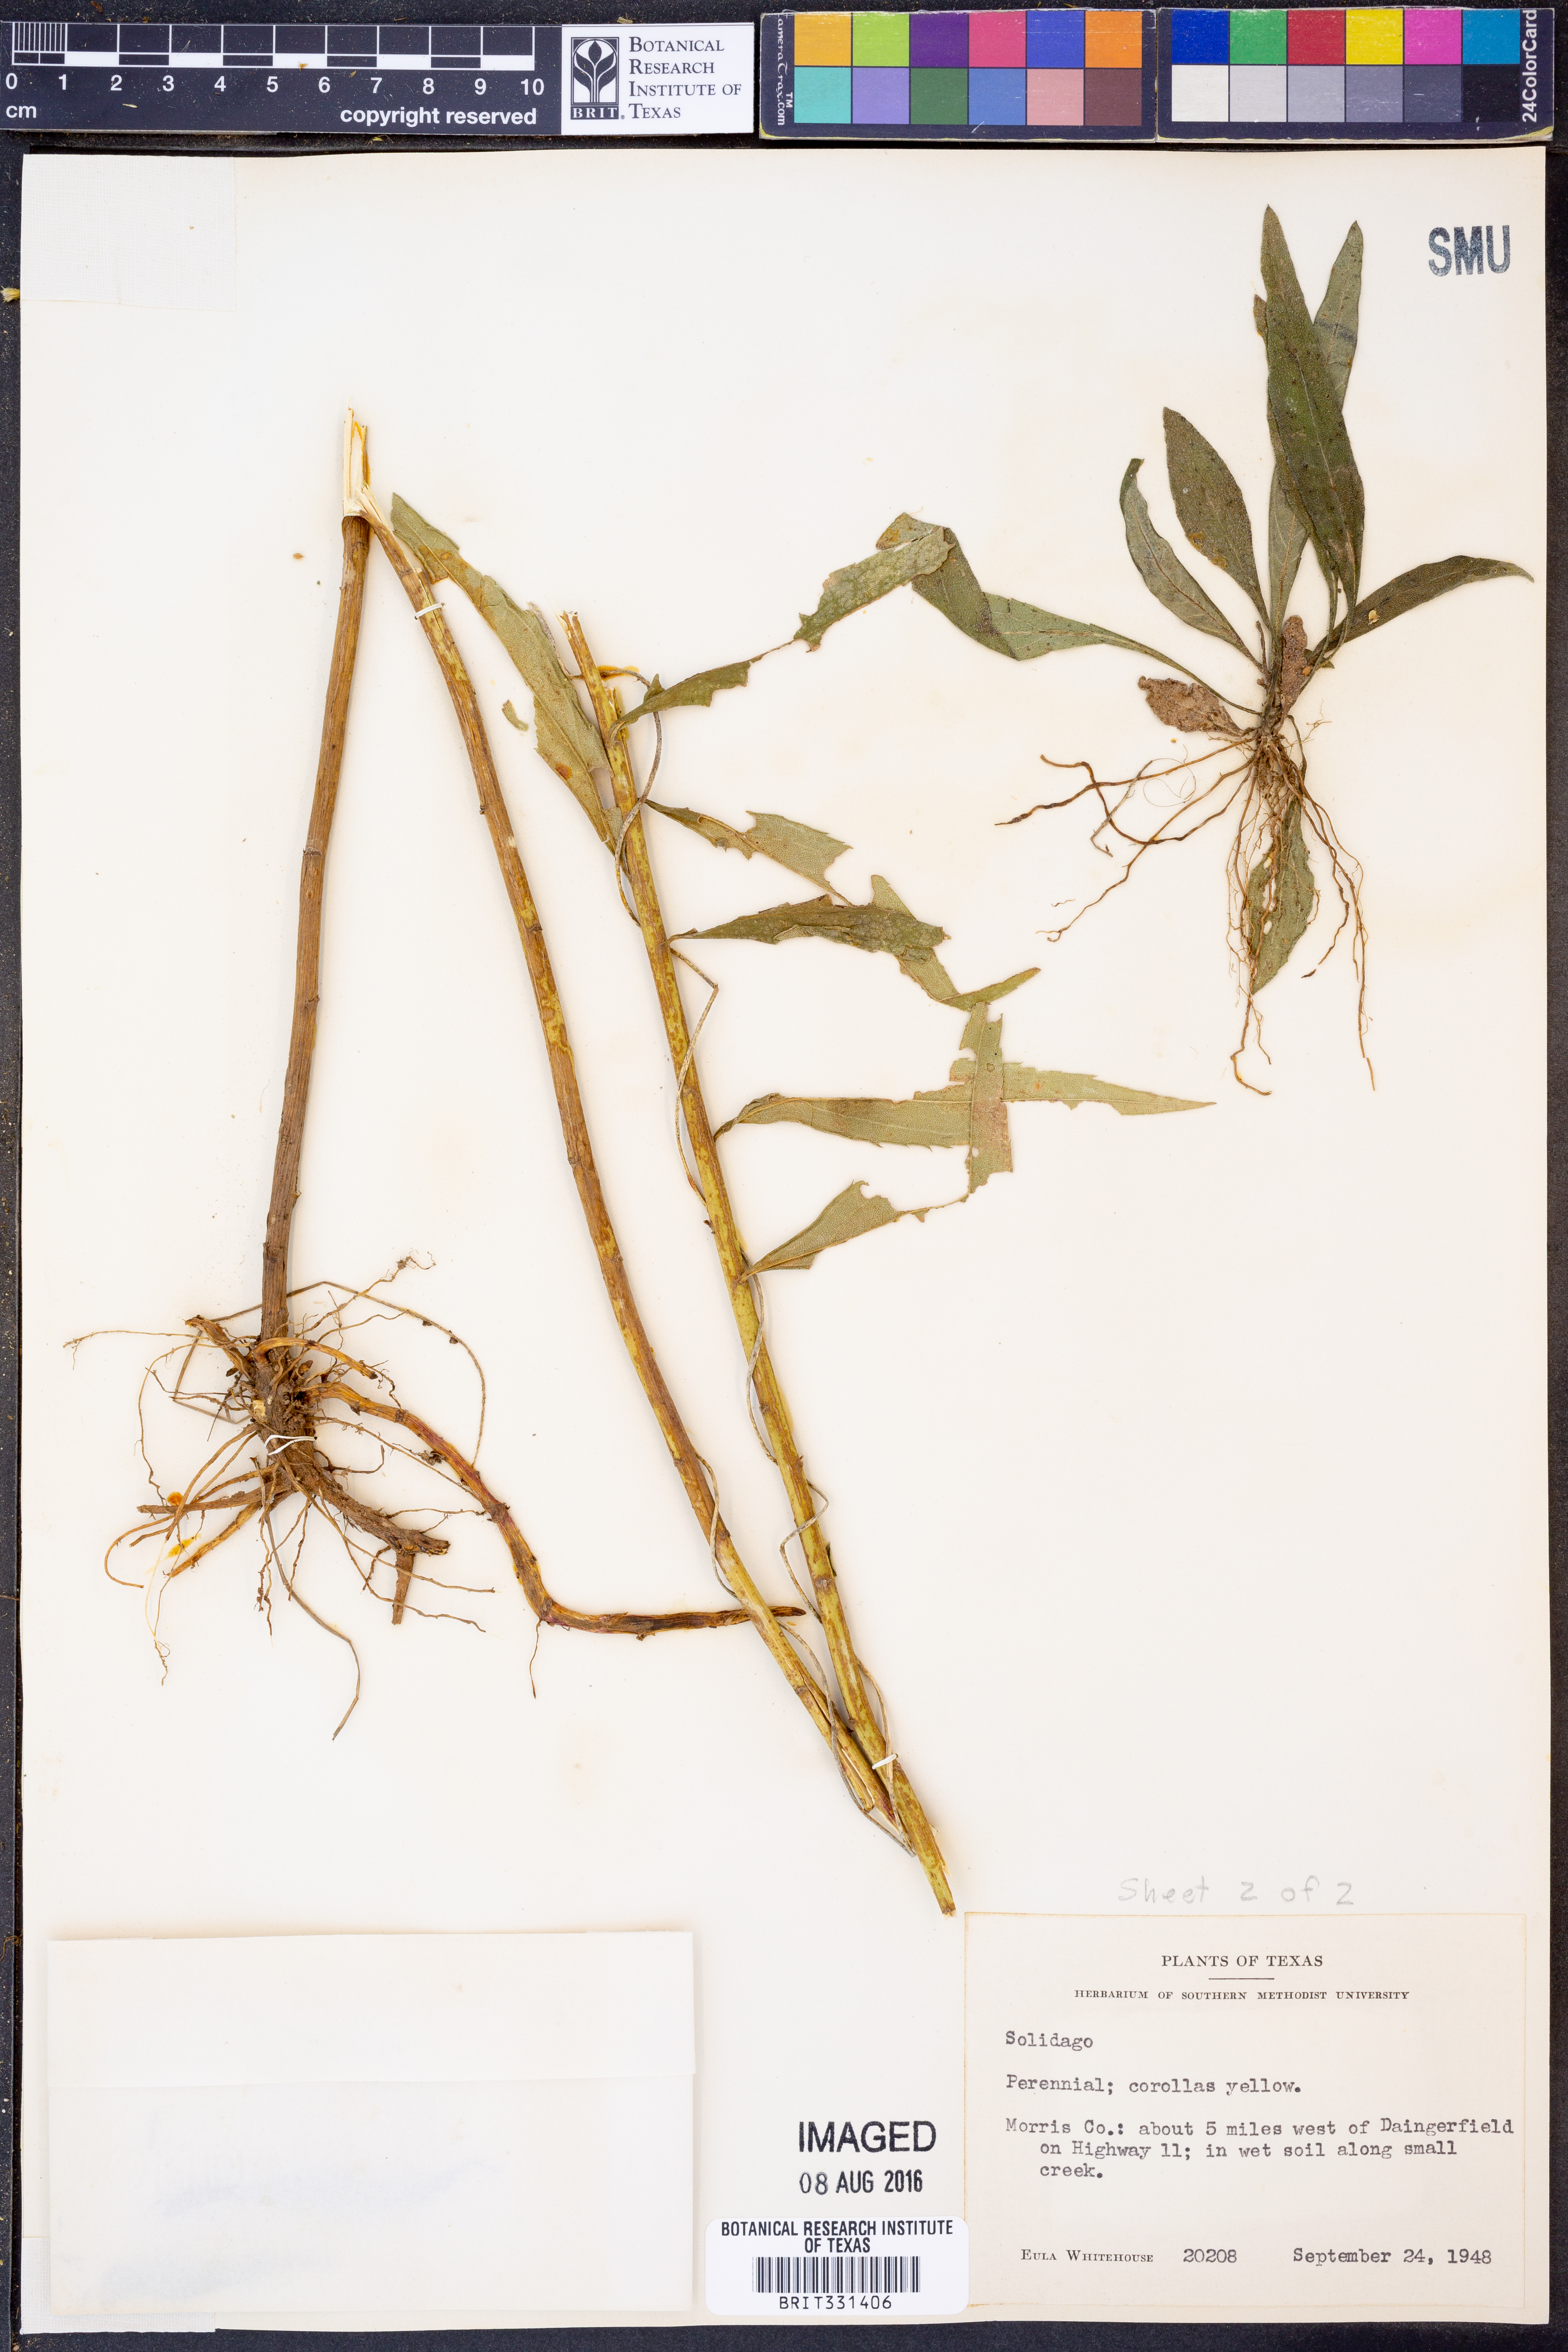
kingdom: Plantae
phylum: Tracheophyta
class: Magnoliopsida
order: Asterales
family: Asteraceae
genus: Solidago
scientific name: Solidago
